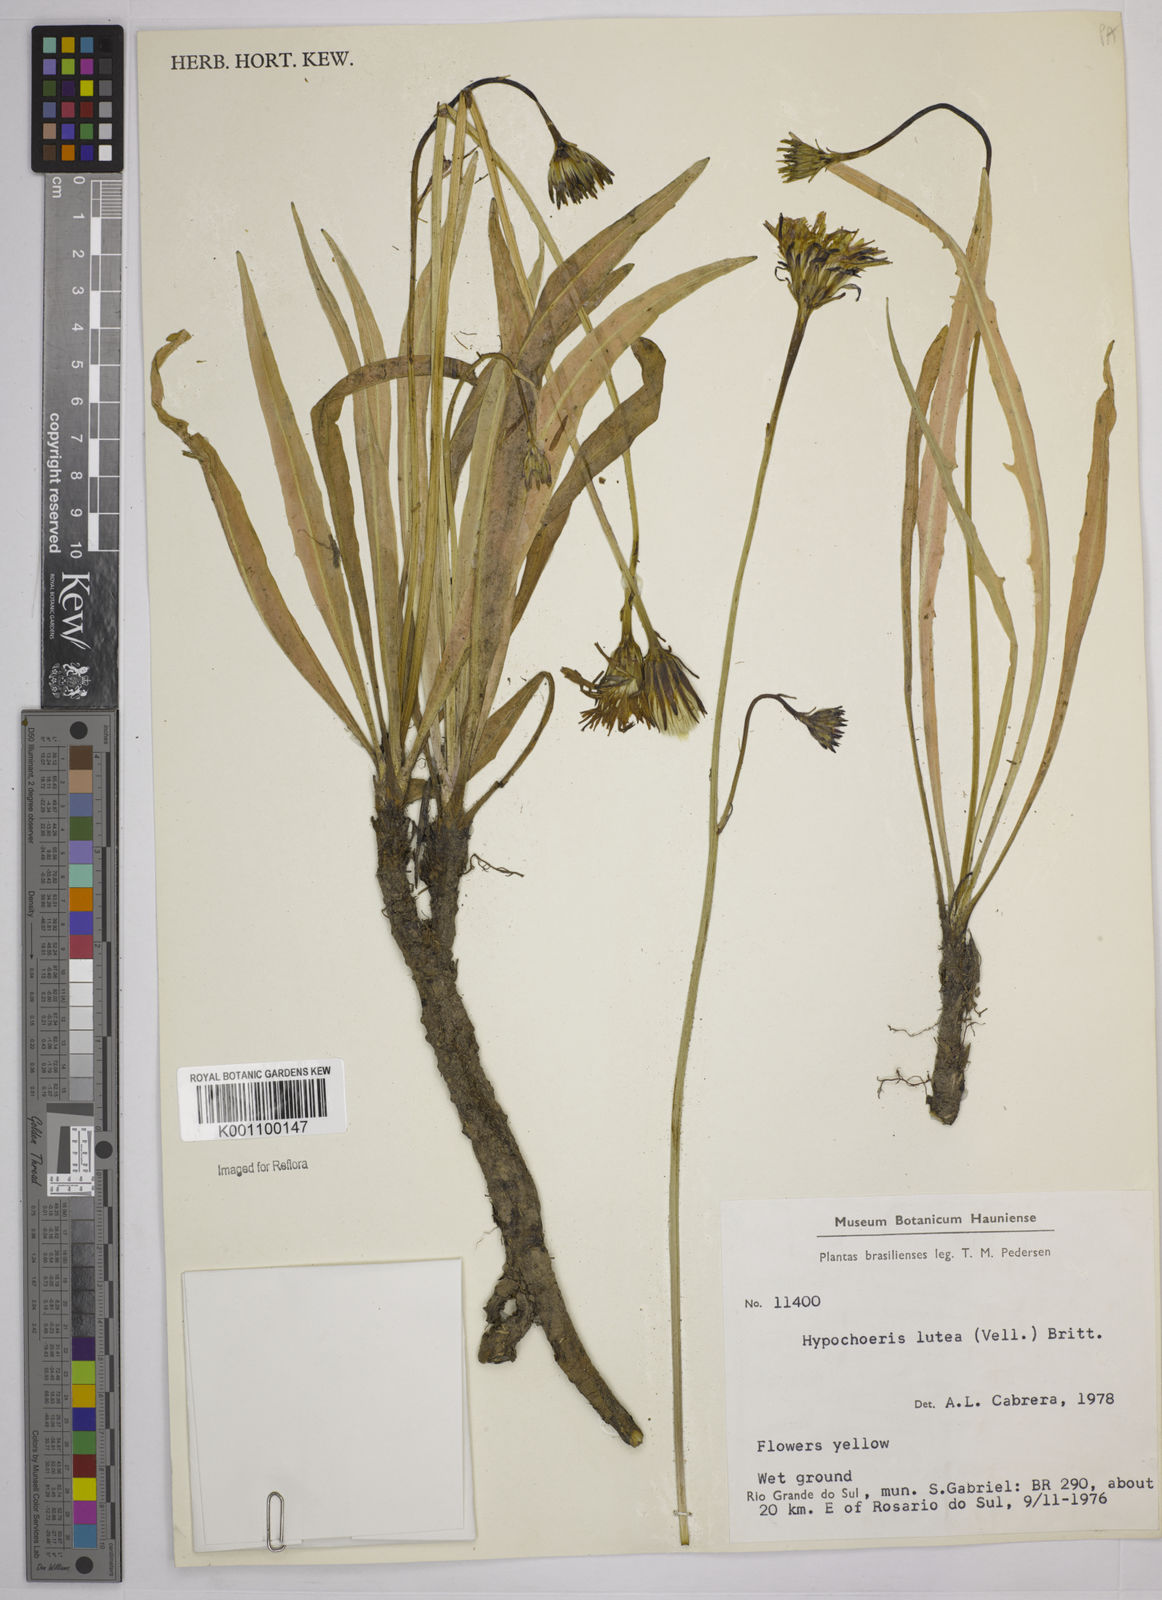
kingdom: Plantae
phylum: Tracheophyta
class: Magnoliopsida
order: Asterales
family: Asteraceae
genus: Hypochaeris
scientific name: Hypochaeris
